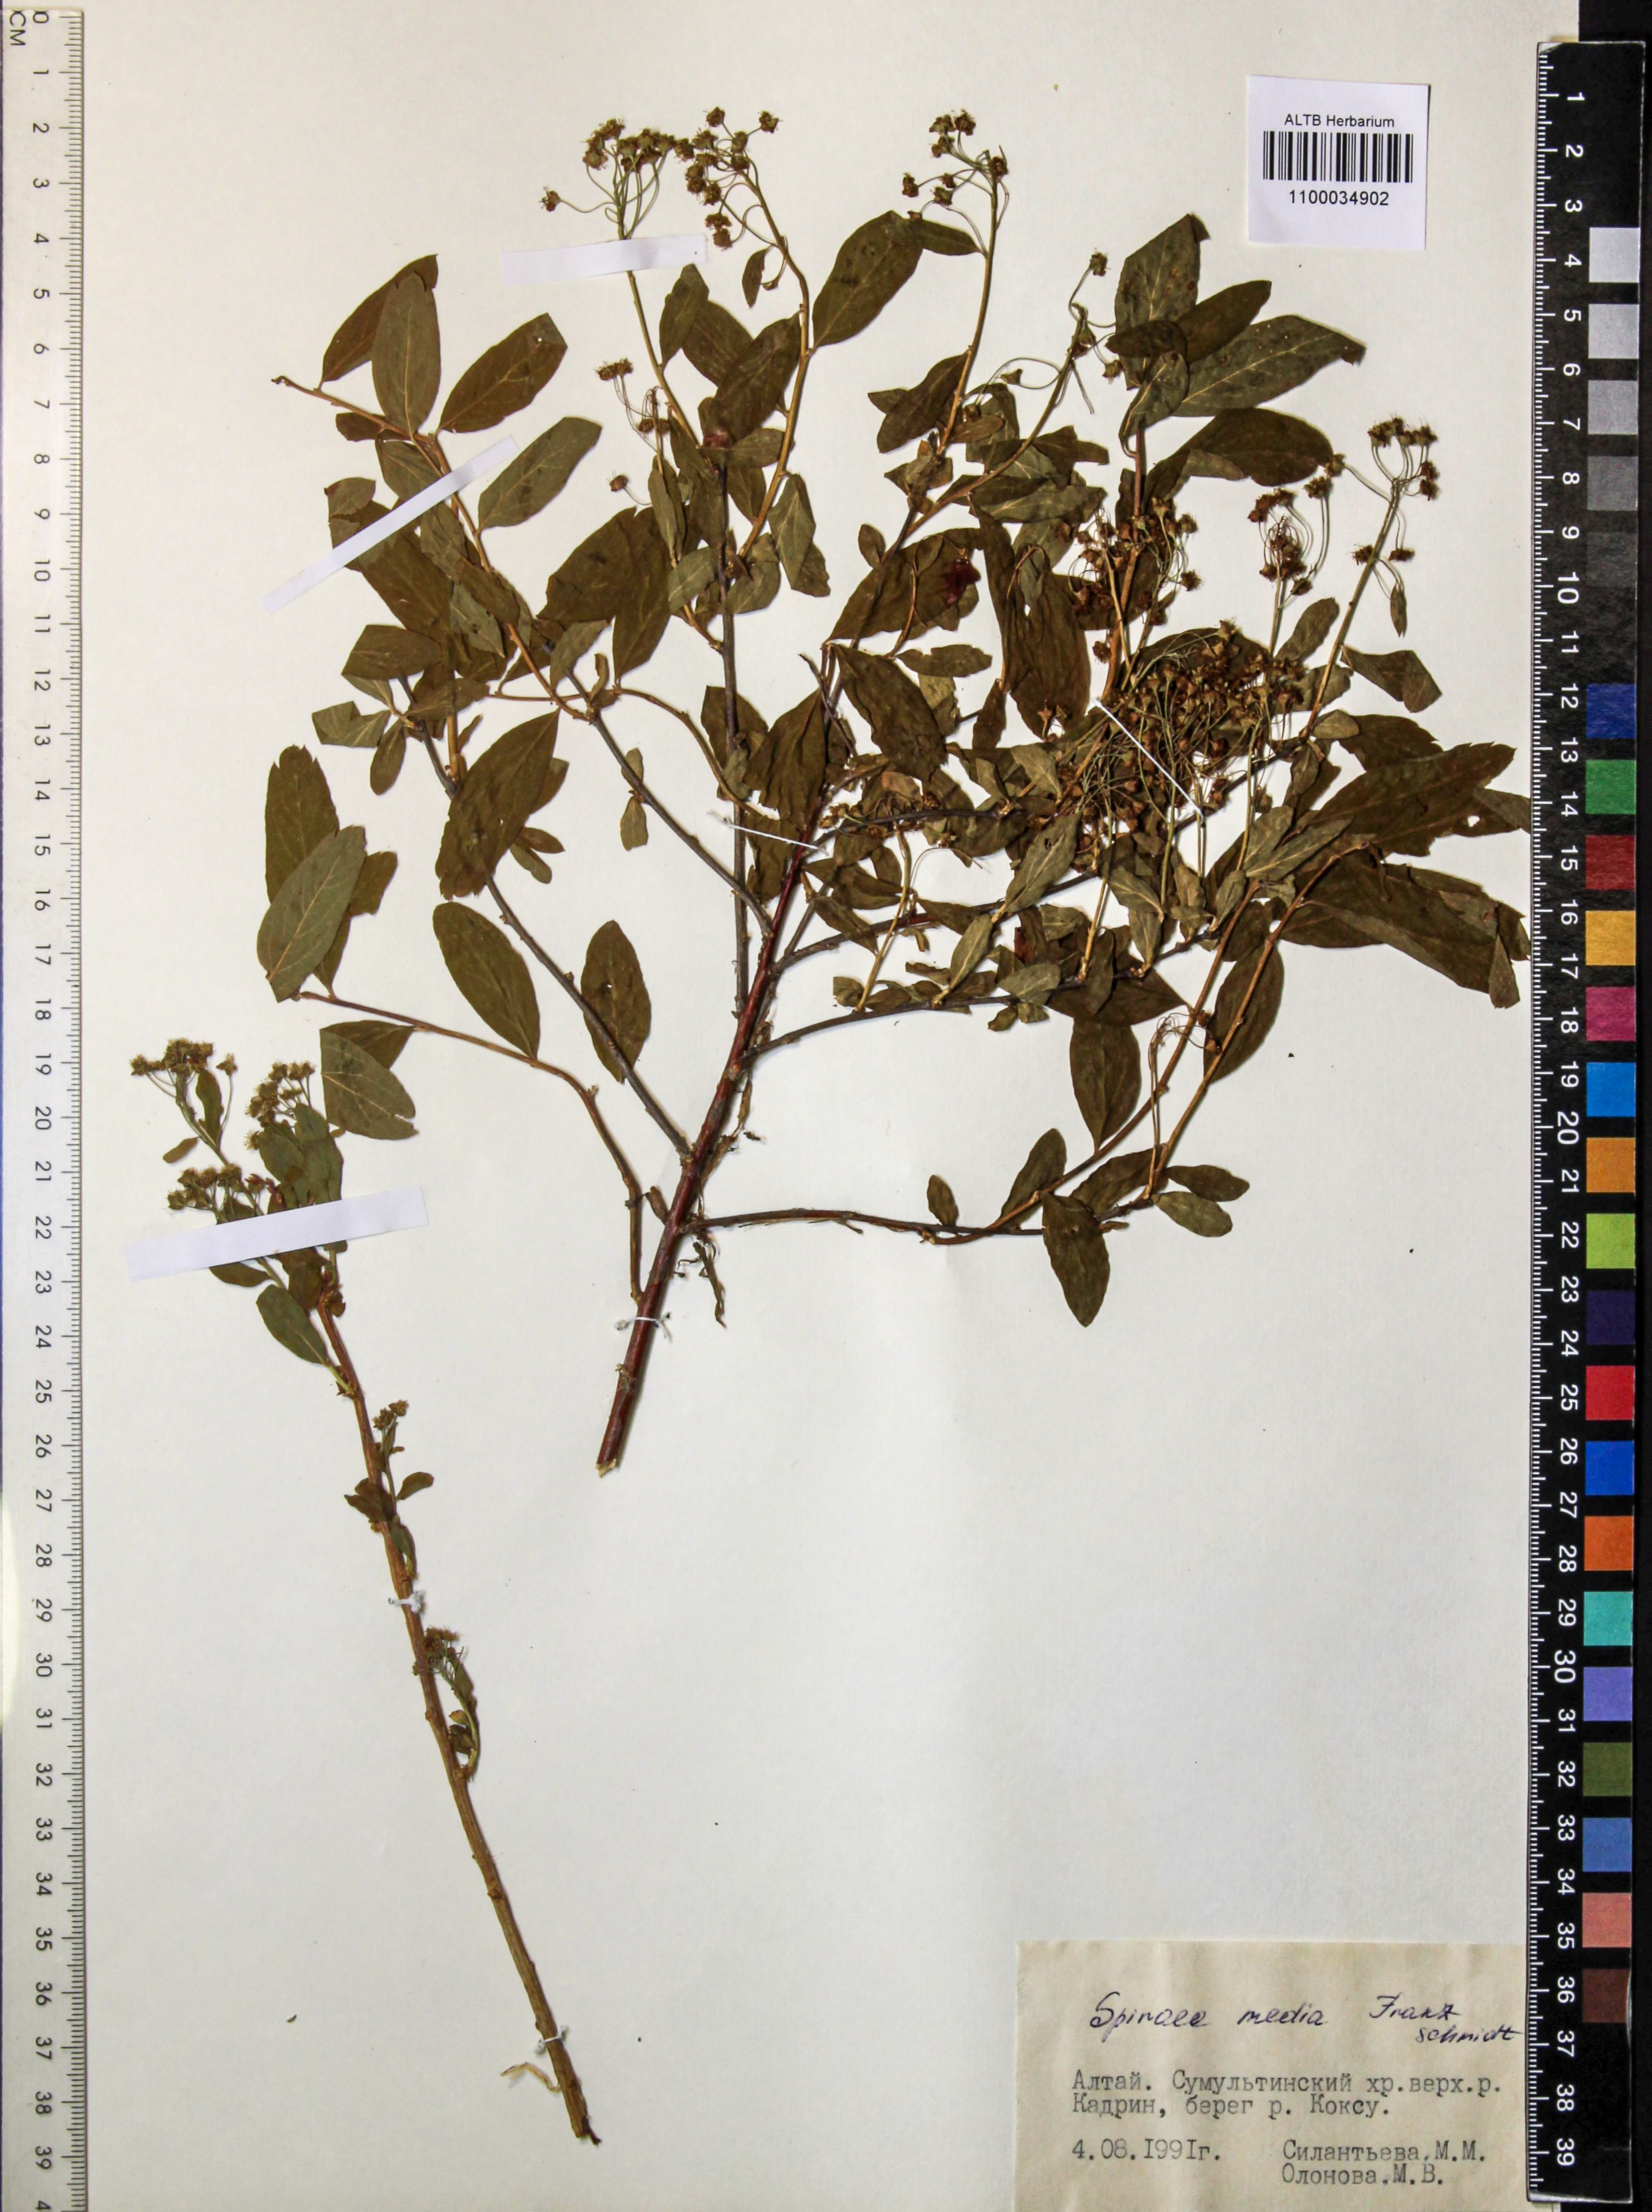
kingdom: Plantae
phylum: Tracheophyta
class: Magnoliopsida
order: Rosales
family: Rosaceae
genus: Spiraea
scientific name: Spiraea media
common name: Russian spiraea
